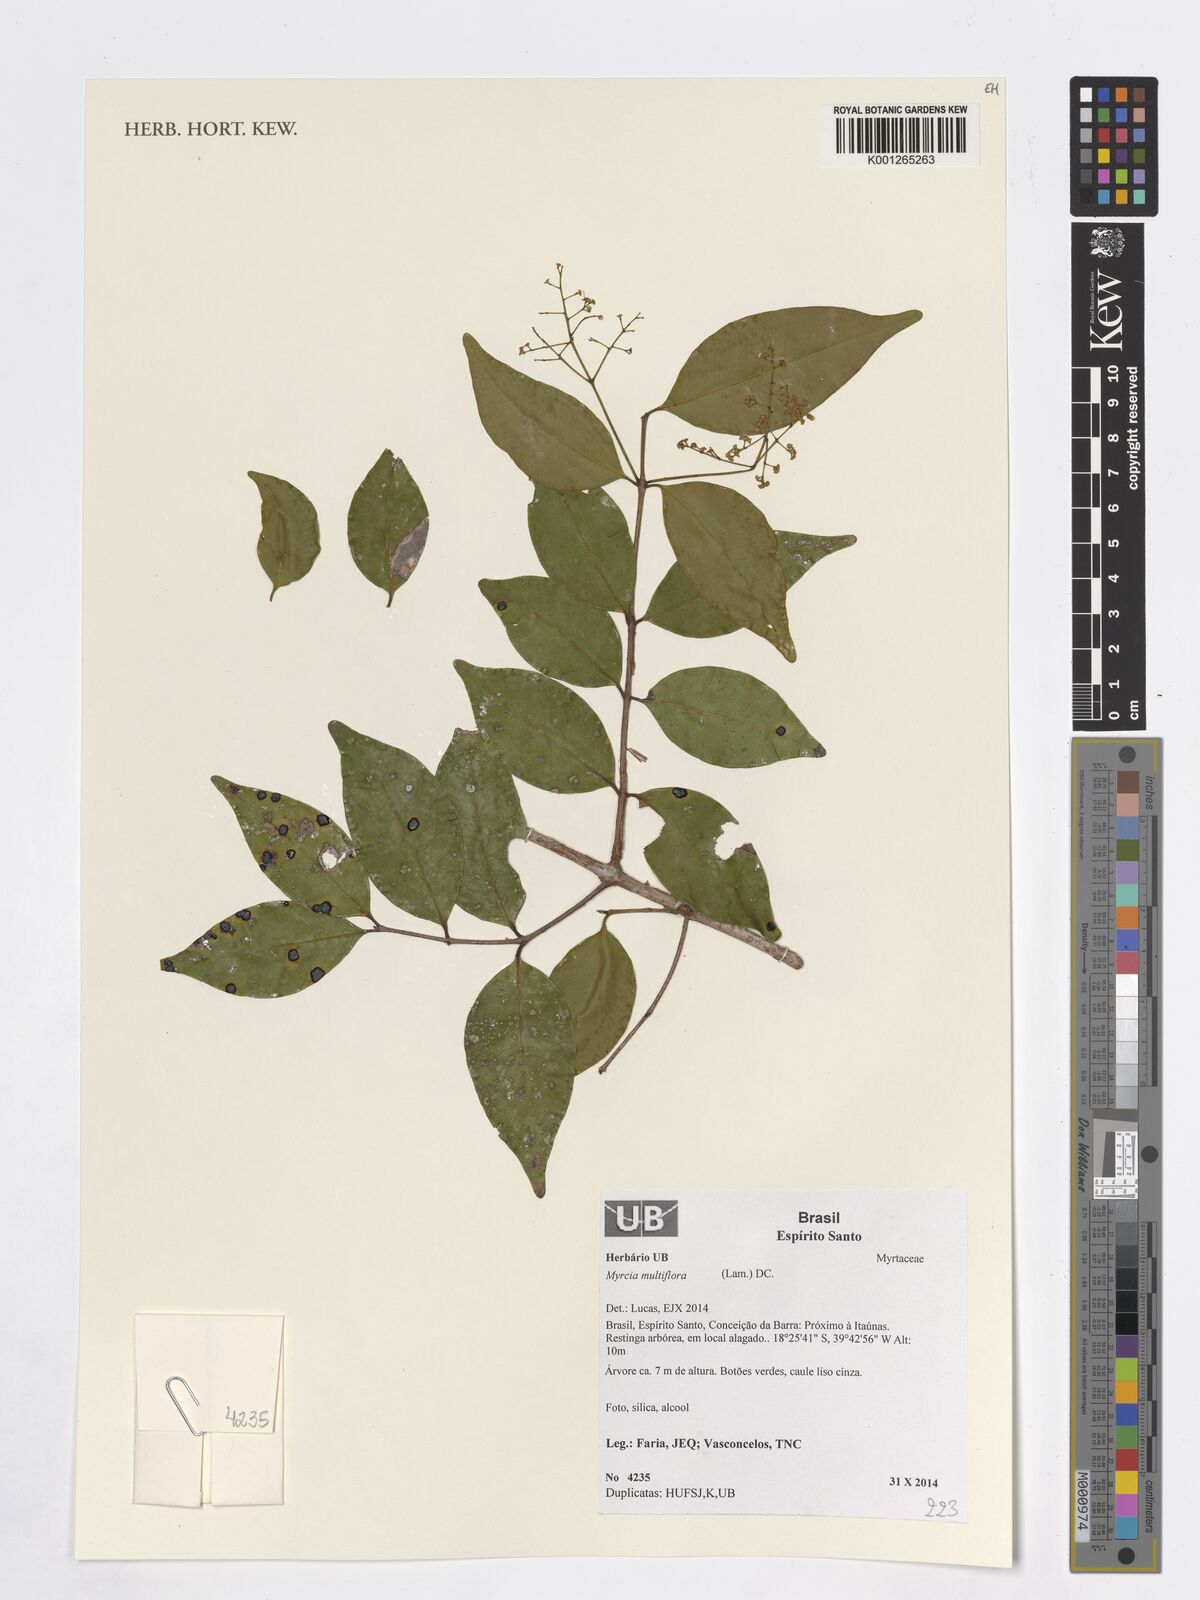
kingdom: Plantae
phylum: Tracheophyta
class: Magnoliopsida
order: Myrtales
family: Myrtaceae
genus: Myrcia
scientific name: Myrcia multiflora
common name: Pedra hume
